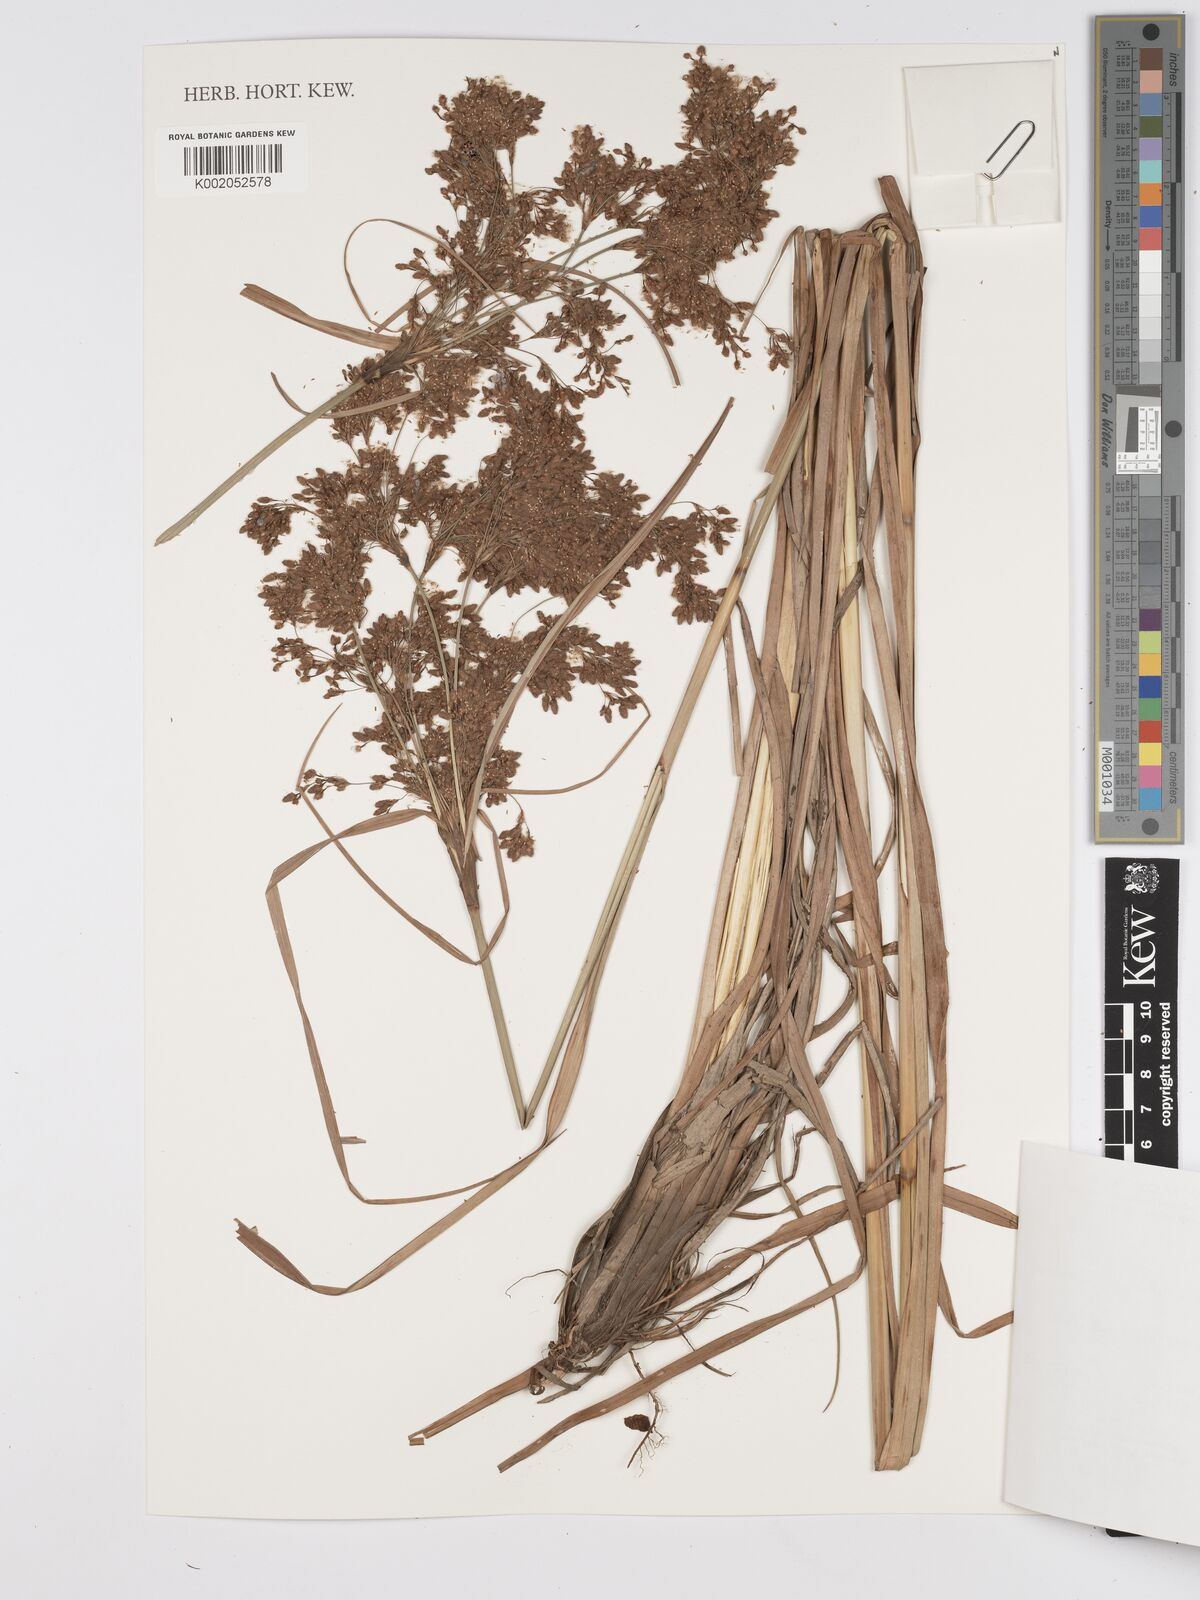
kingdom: Plantae
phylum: Tracheophyta
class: Liliopsida
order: Poales
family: Cyperaceae
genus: Scirpus
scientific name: Scirpus atrocinctus
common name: Black-girdled bulrush
